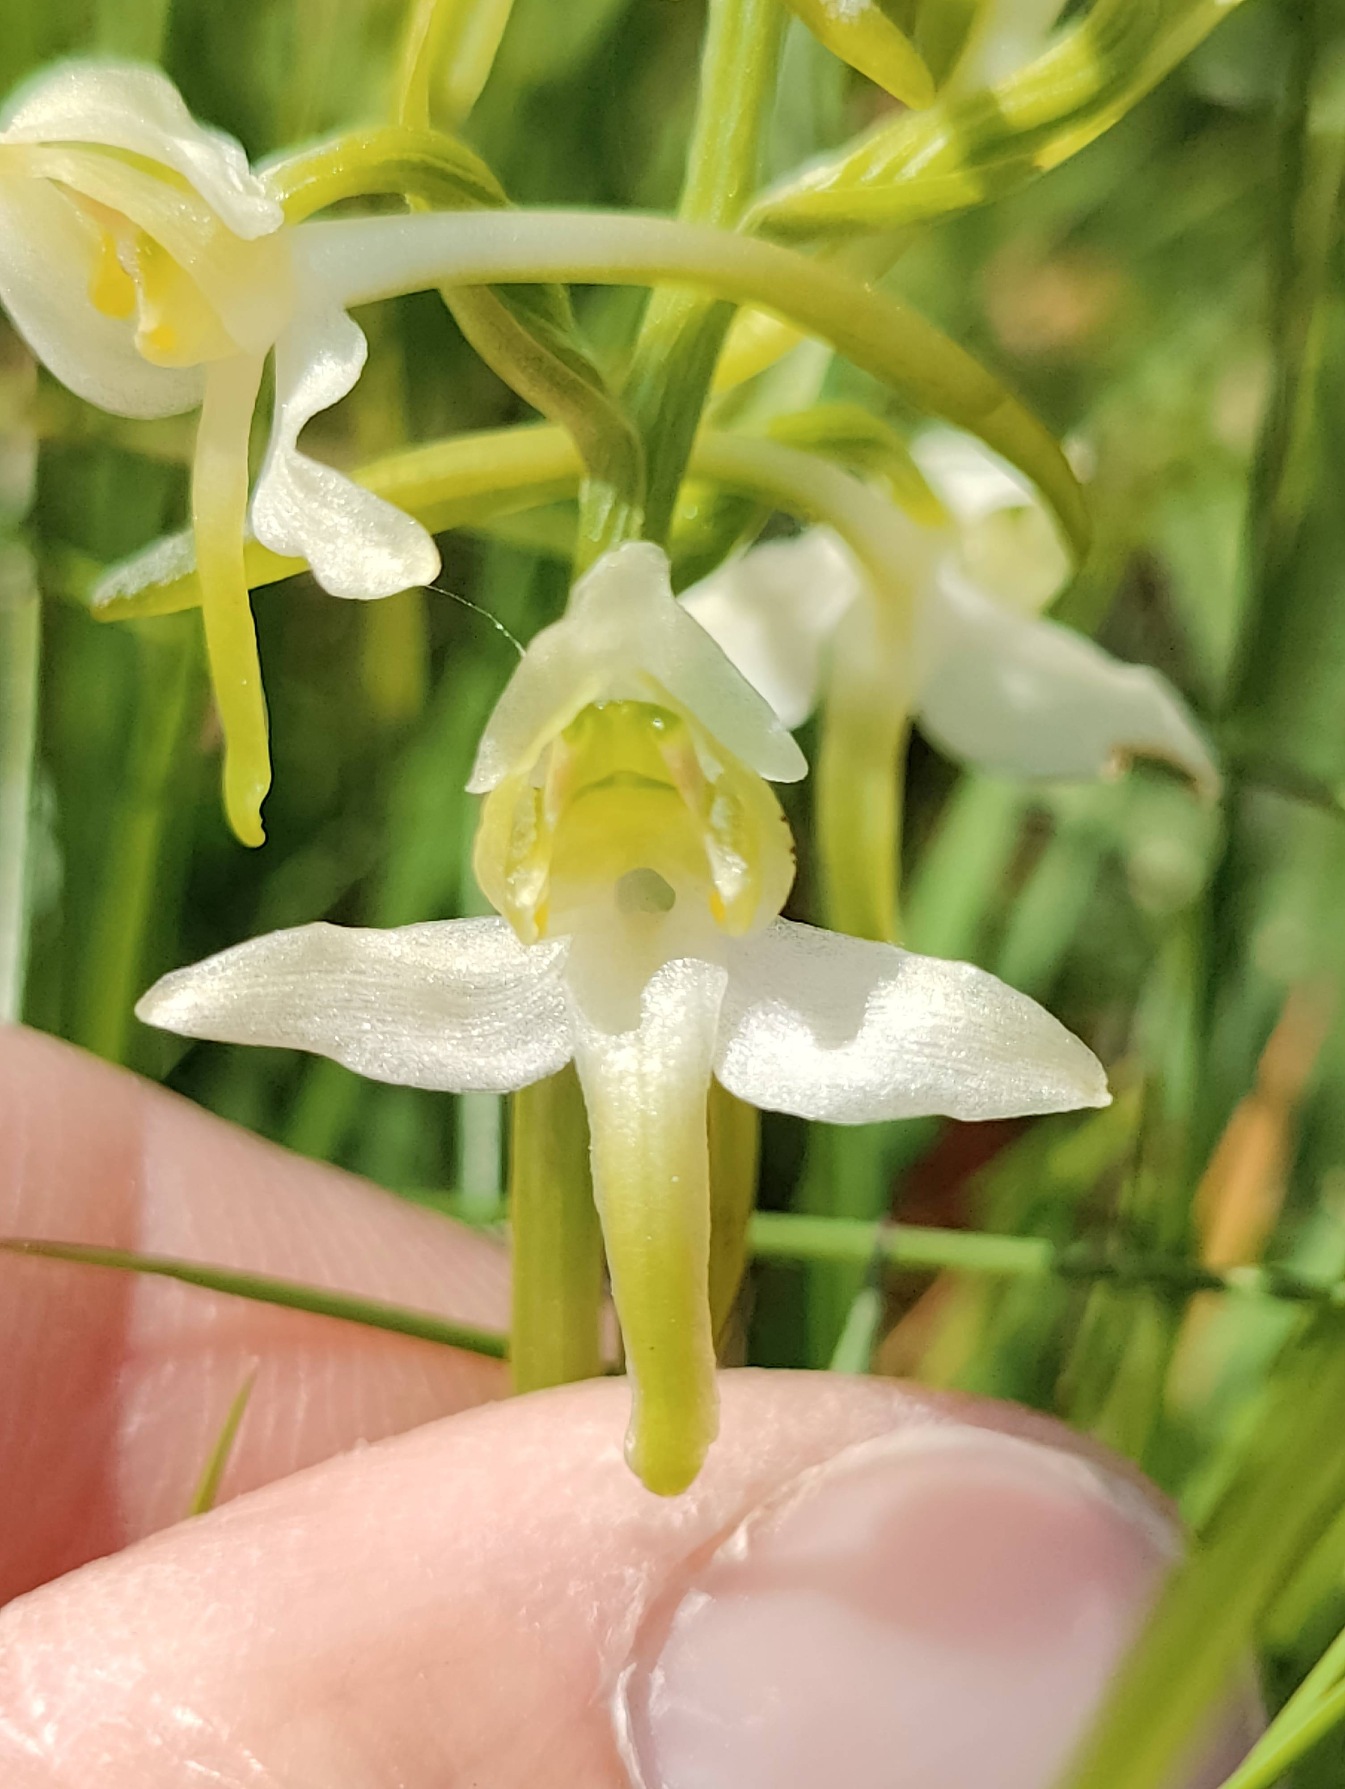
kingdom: Plantae
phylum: Tracheophyta
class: Liliopsida
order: Asparagales
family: Orchidaceae
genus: Platanthera
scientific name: Platanthera chlorantha
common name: Skov-gøgelilje
